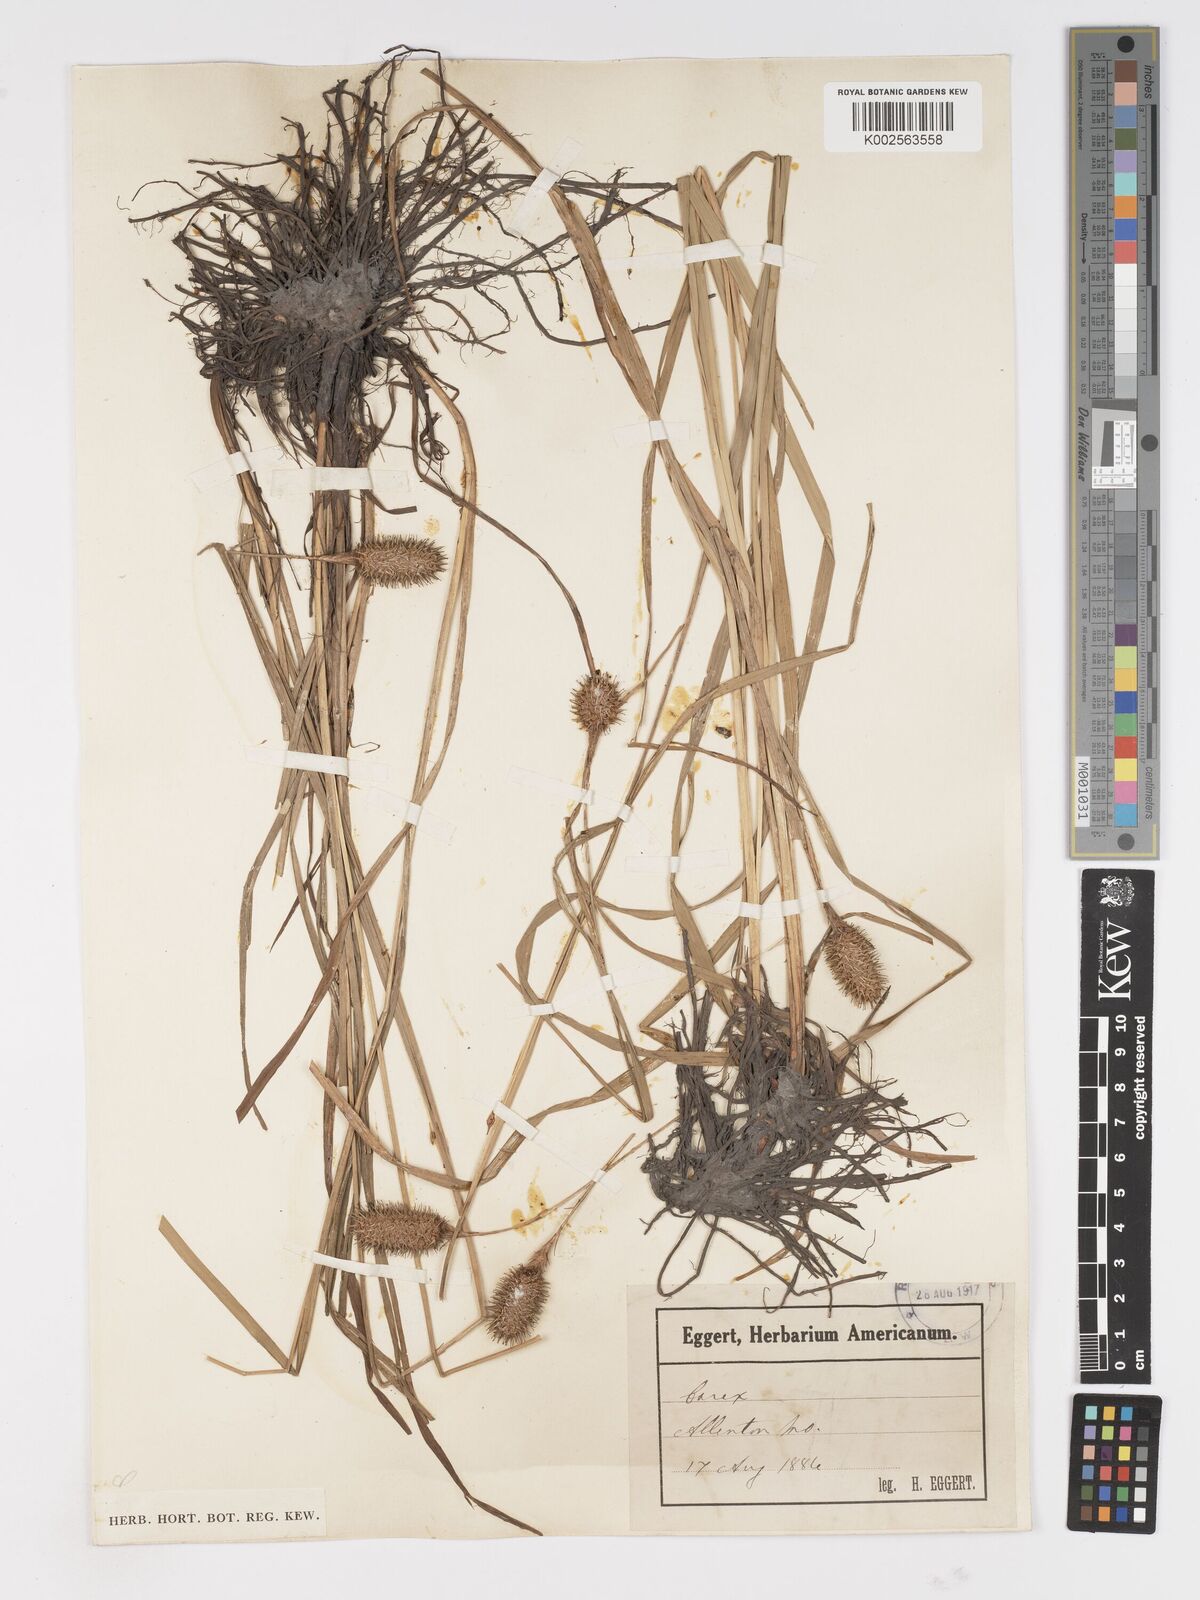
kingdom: Plantae
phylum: Tracheophyta
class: Liliopsida
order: Poales
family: Cyperaceae
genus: Carex
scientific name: Carex squarrosa
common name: Narrow-leaved cattail sedge
